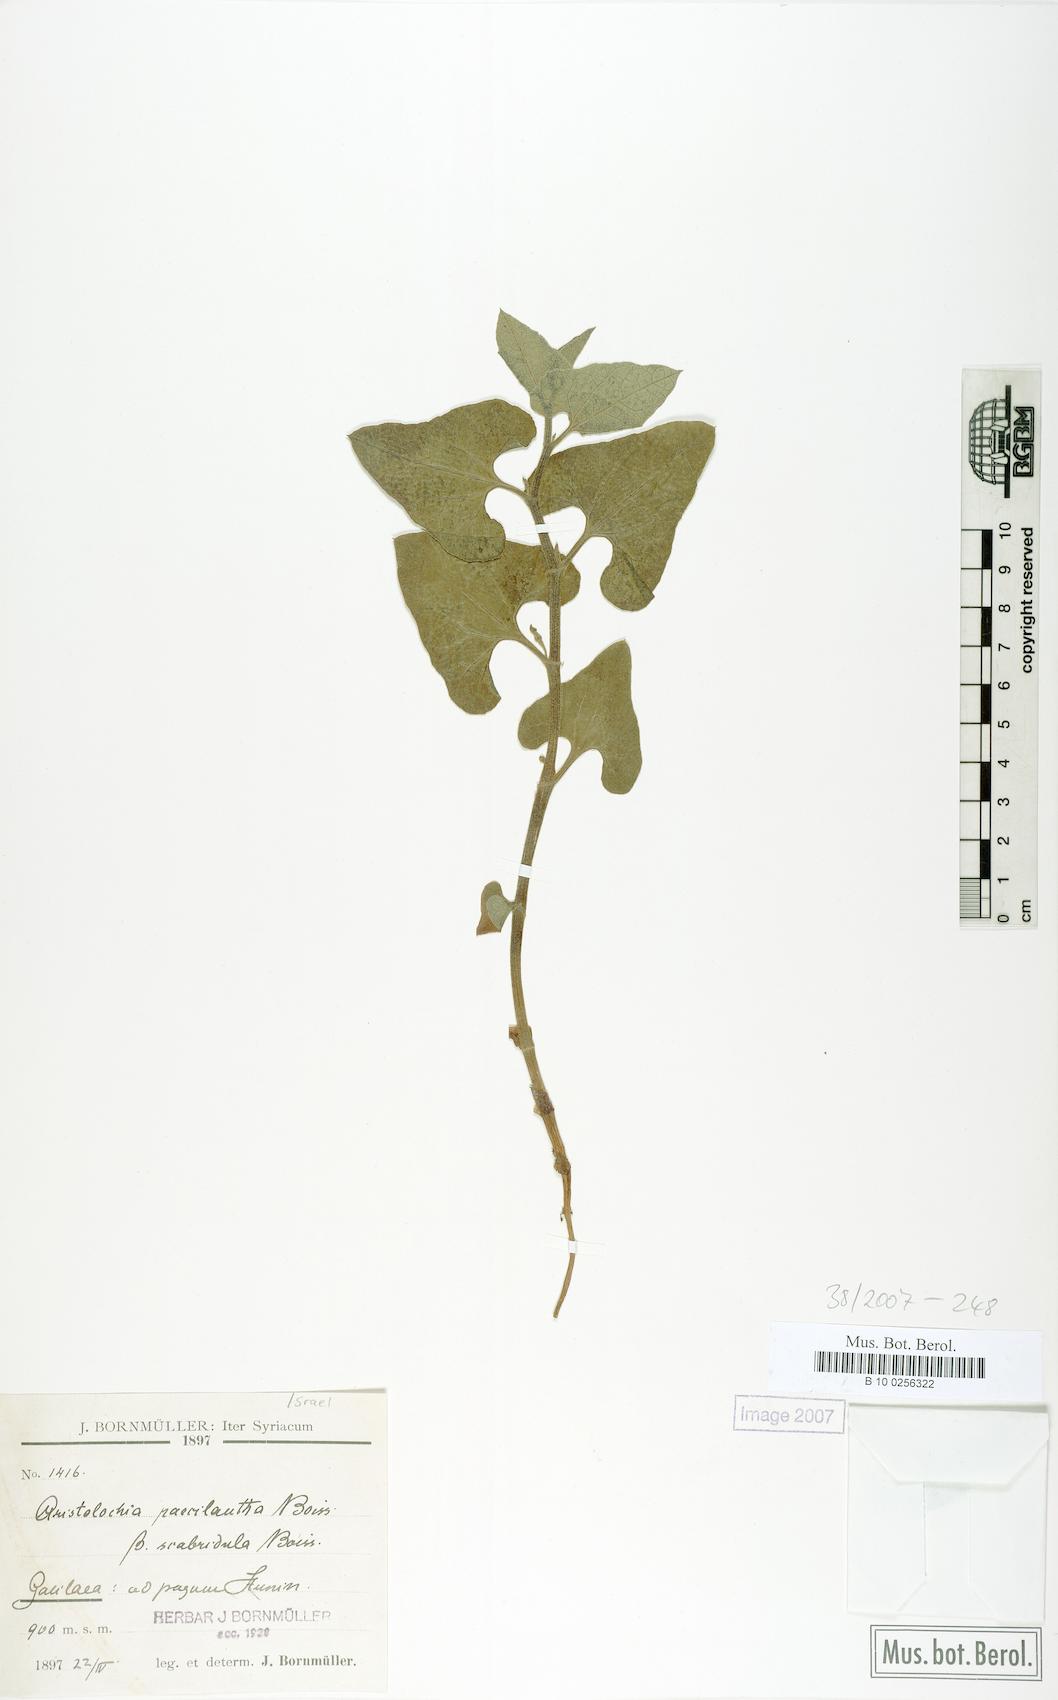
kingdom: Plantae
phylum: Tracheophyta
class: Magnoliopsida
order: Piperales
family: Aristolochiaceae
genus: Aristolochia
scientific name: Aristolochia paecilantha
